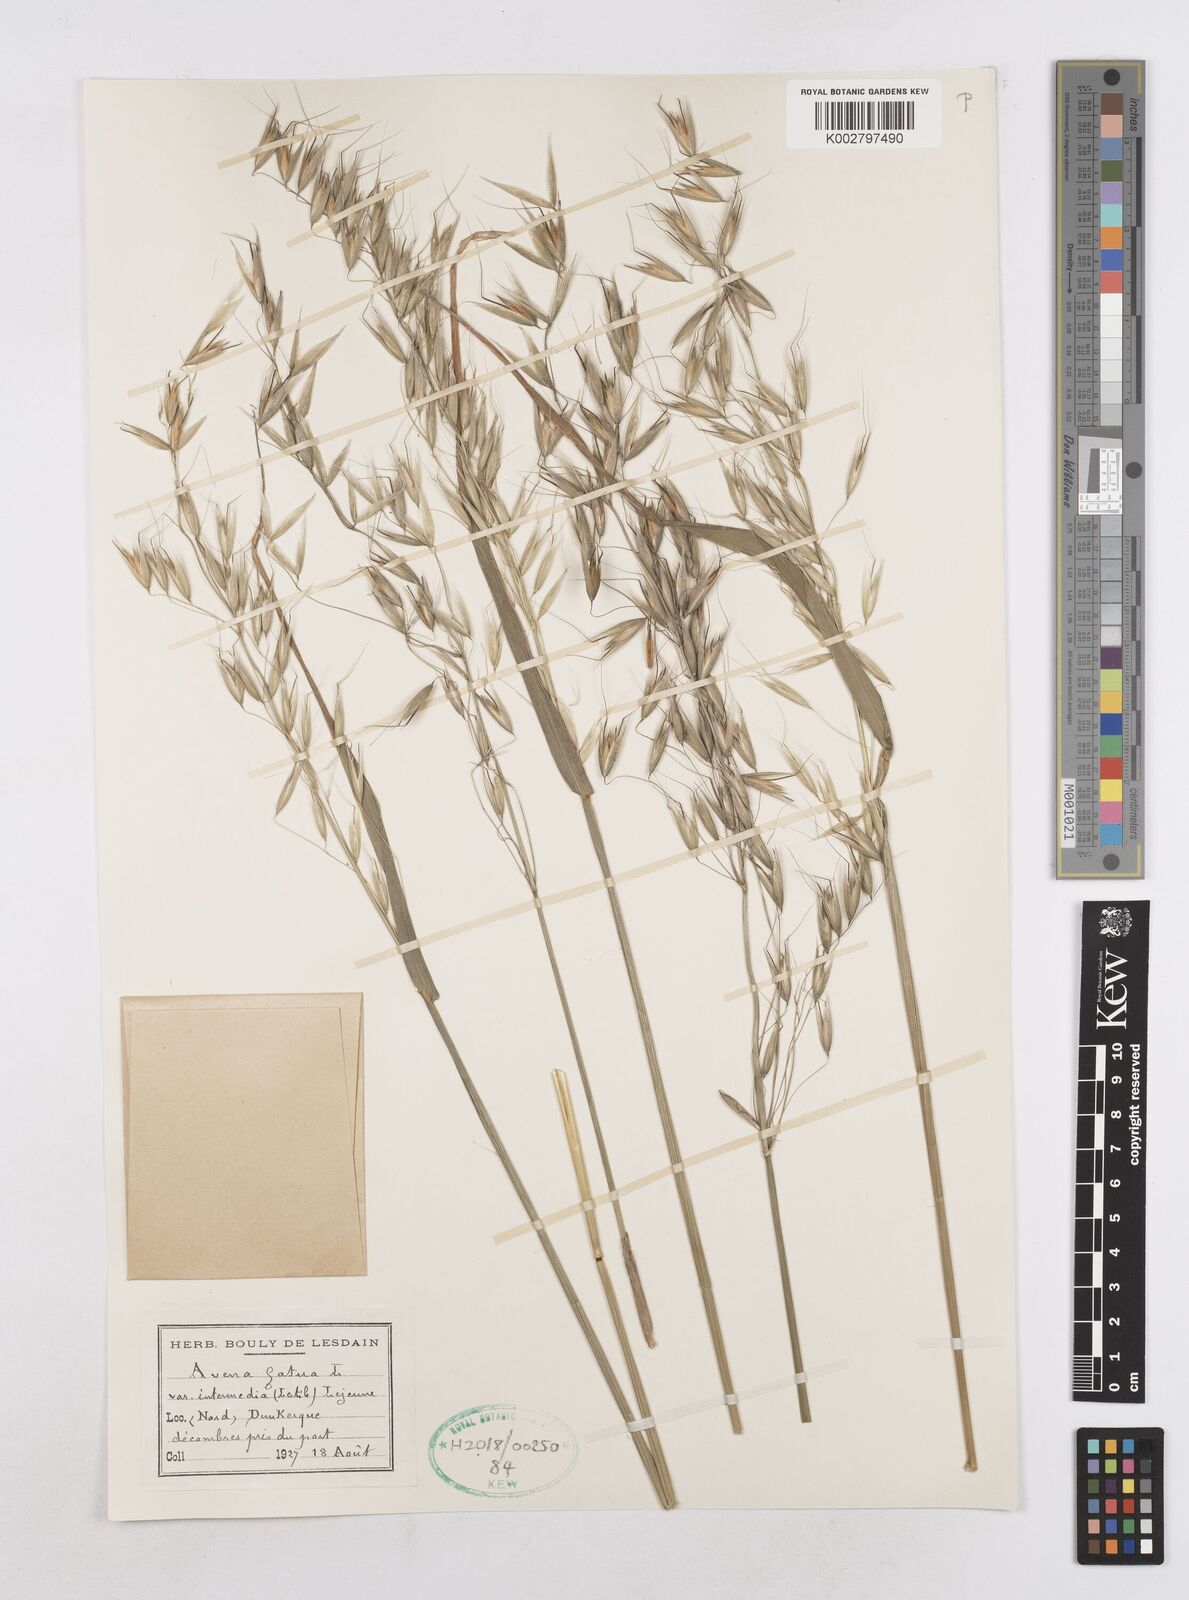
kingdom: Plantae
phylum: Tracheophyta
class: Liliopsida
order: Poales
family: Poaceae
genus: Avena
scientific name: Avena fatua
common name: Wild oat
